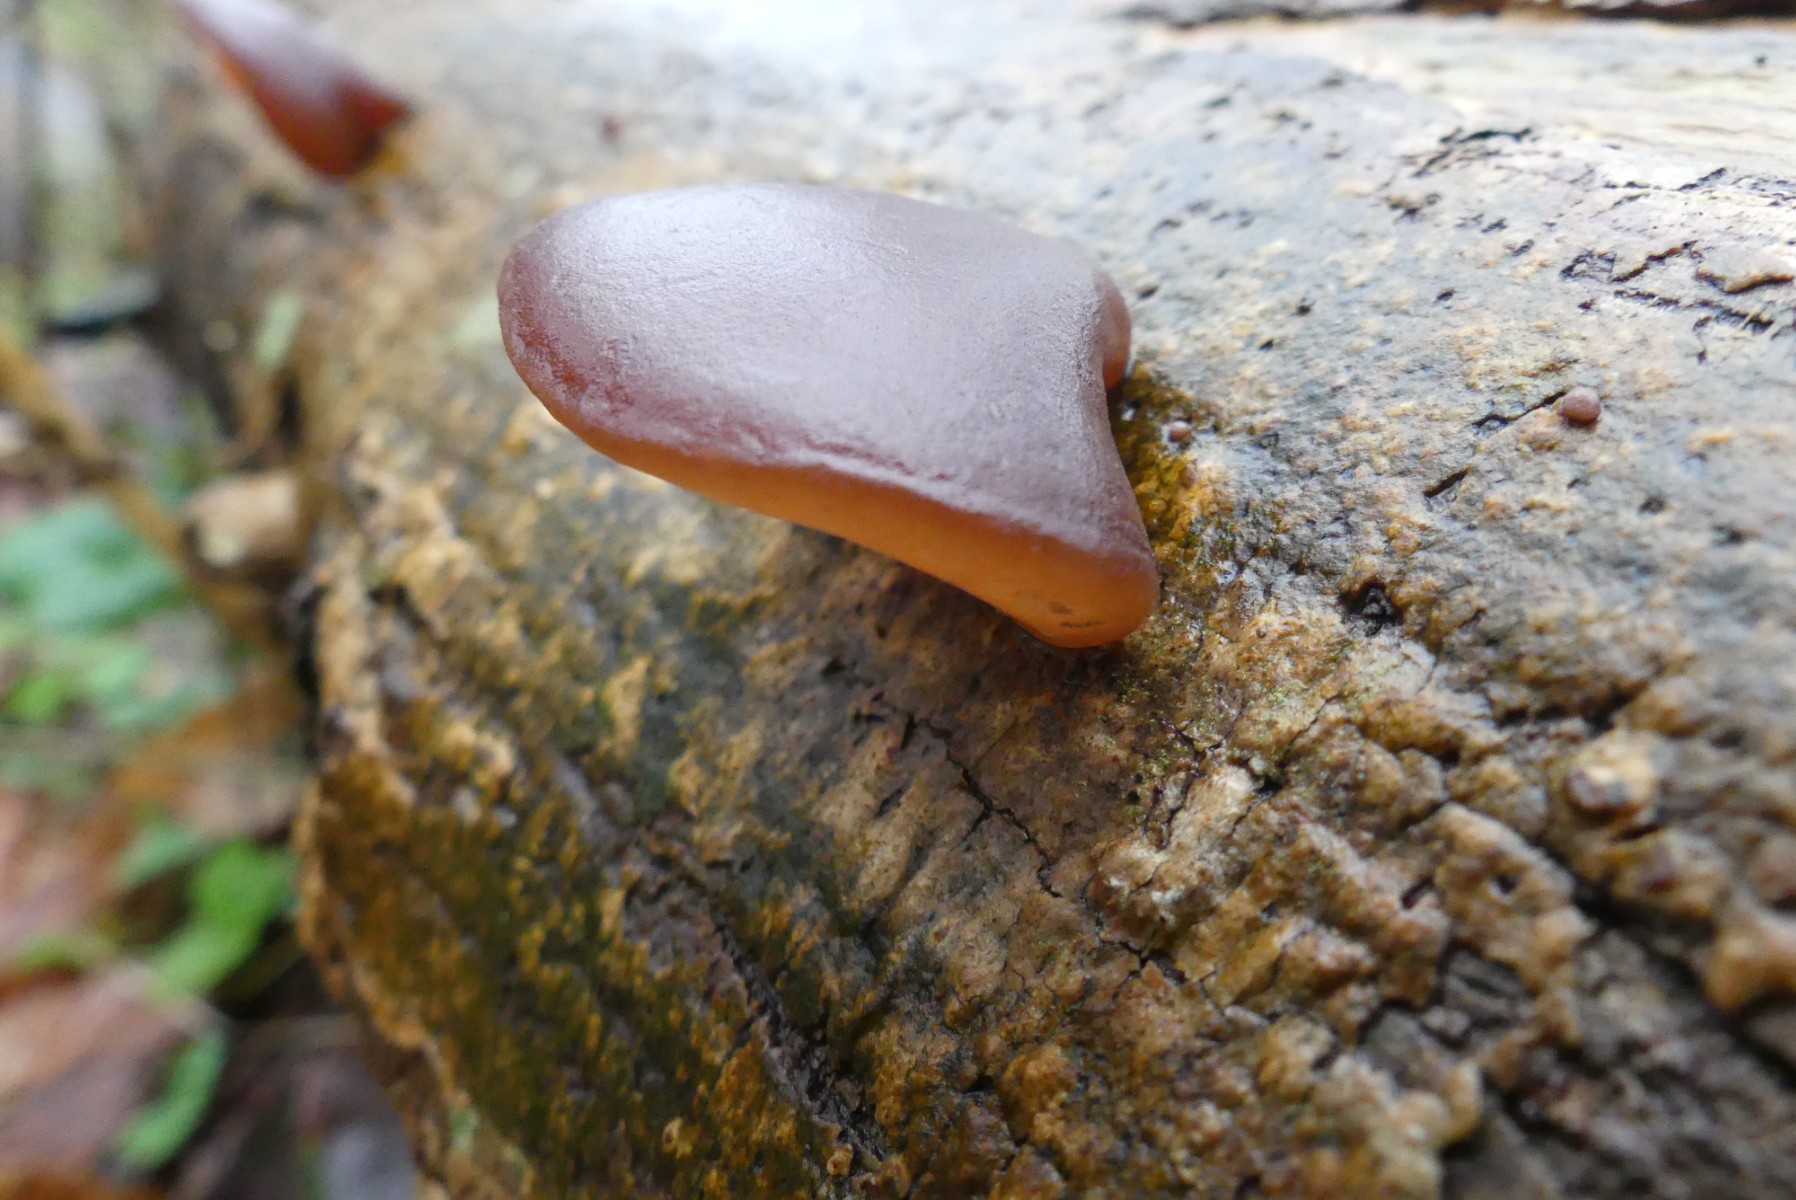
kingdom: Fungi
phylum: Basidiomycota
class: Agaricomycetes
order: Auriculariales
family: Auriculariaceae
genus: Auricularia
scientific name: Auricularia auricula-judae
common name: almindelig judasøre
